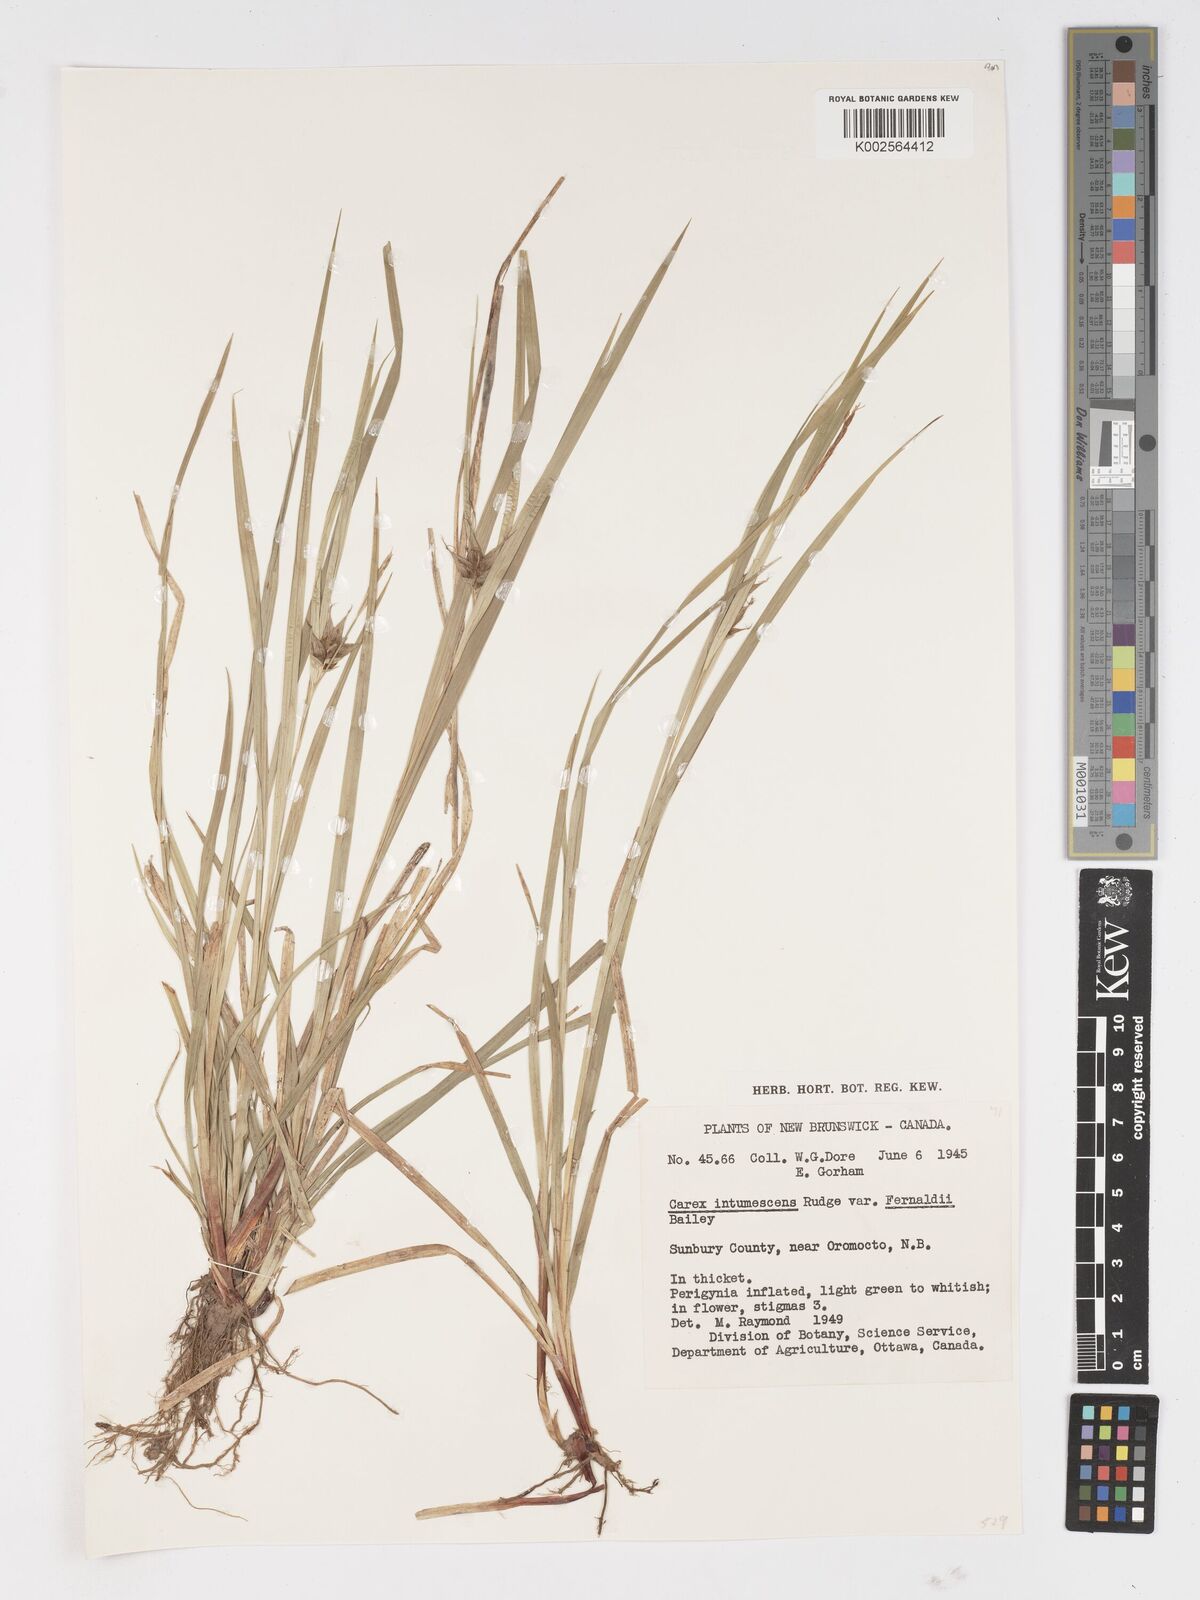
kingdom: Plantae
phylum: Tracheophyta
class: Liliopsida
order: Poales
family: Cyperaceae
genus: Carex
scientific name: Carex intumescens
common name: Greater bladder sedge
